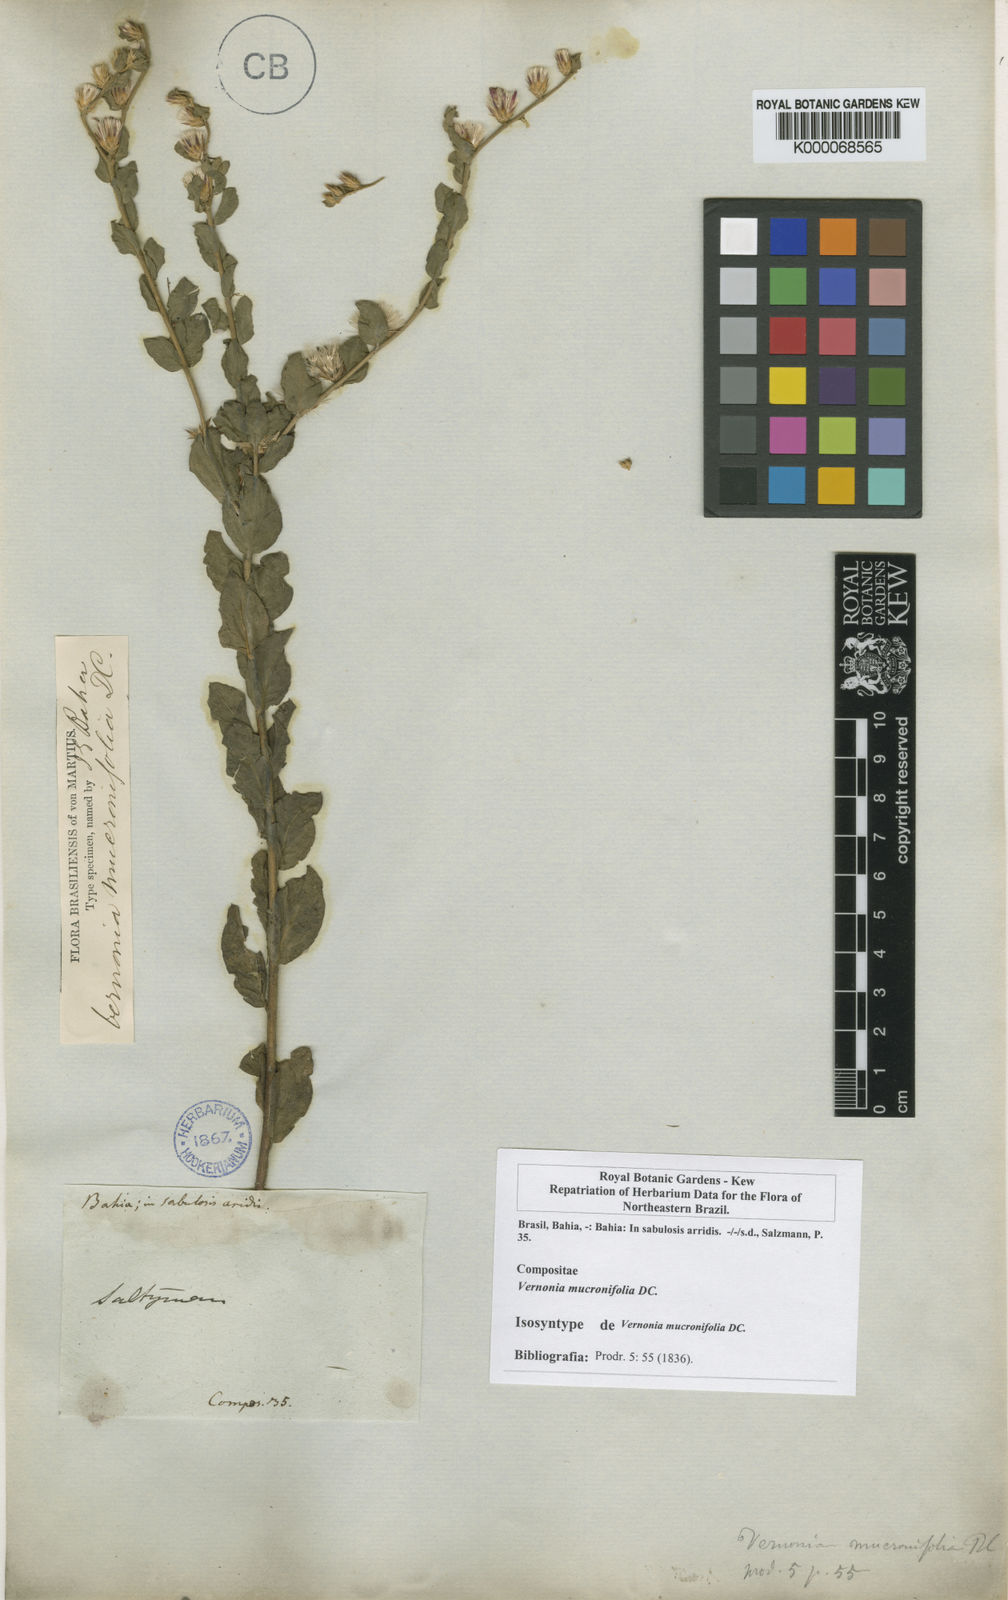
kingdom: Plantae
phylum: Tracheophyta
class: Magnoliopsida
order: Asterales
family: Asteraceae
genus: Lepidaploa
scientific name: Lepidaploa mucronifolia
